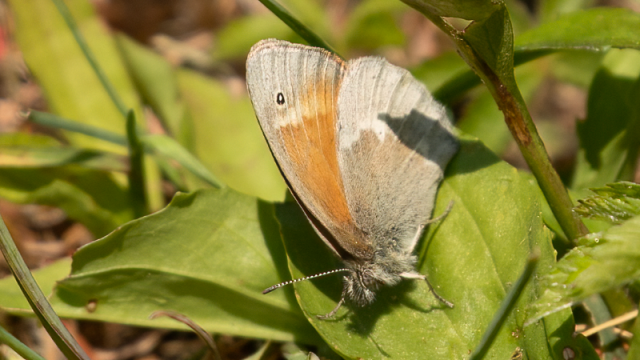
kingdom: Animalia
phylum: Arthropoda
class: Insecta
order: Lepidoptera
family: Nymphalidae
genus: Coenonympha
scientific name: Coenonympha tullia
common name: Large Heath
